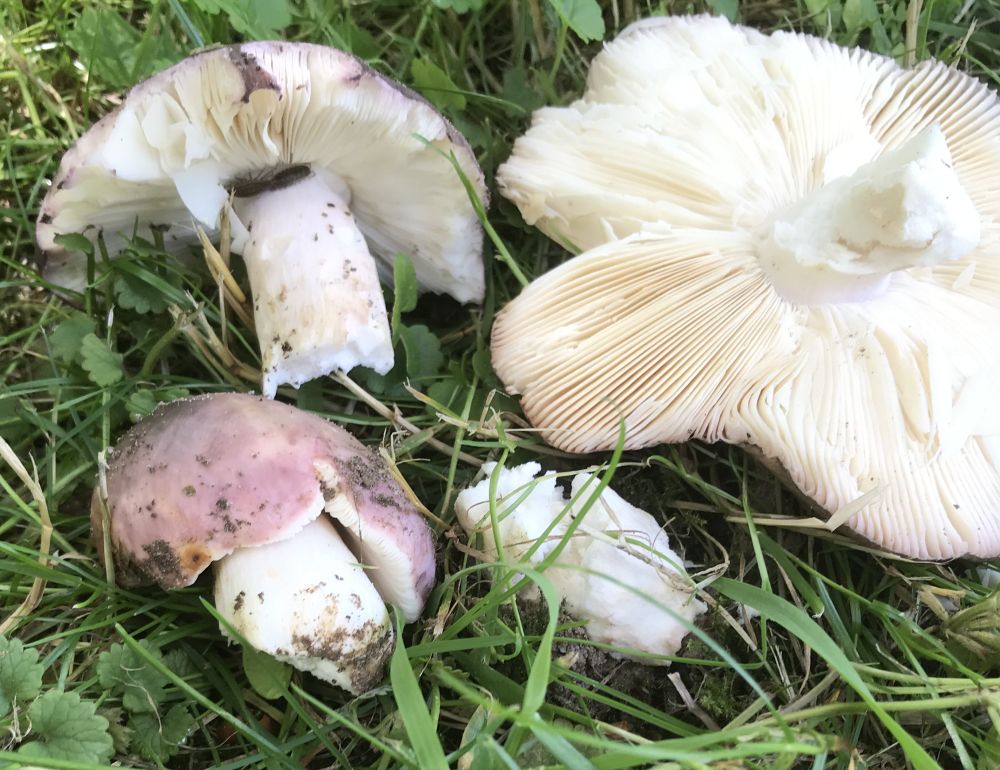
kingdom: Fungi
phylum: Basidiomycota
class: Agaricomycetes
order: Russulales
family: Russulaceae
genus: Russula
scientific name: Russula cyanoxantha
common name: broget skørhat
